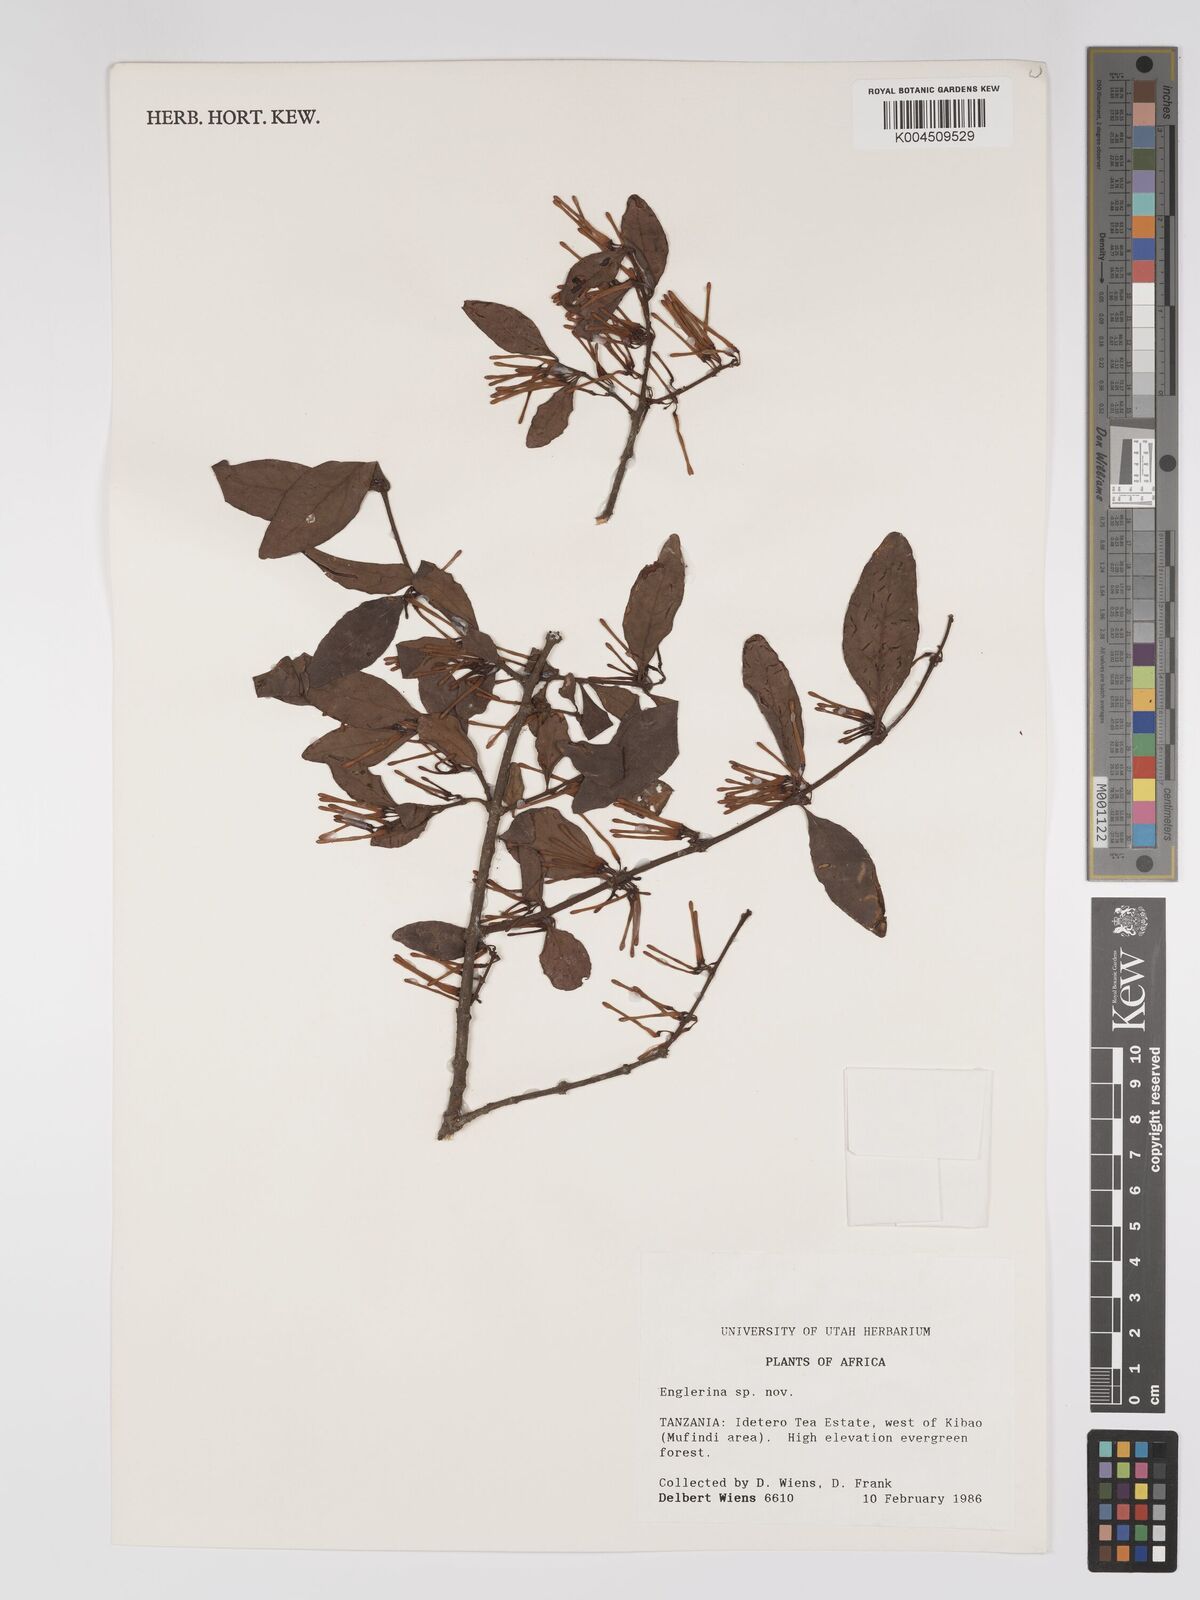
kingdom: Plantae
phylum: Tracheophyta
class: Magnoliopsida
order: Santalales
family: Loranthaceae
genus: Englerina
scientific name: Englerina inaequilatera
